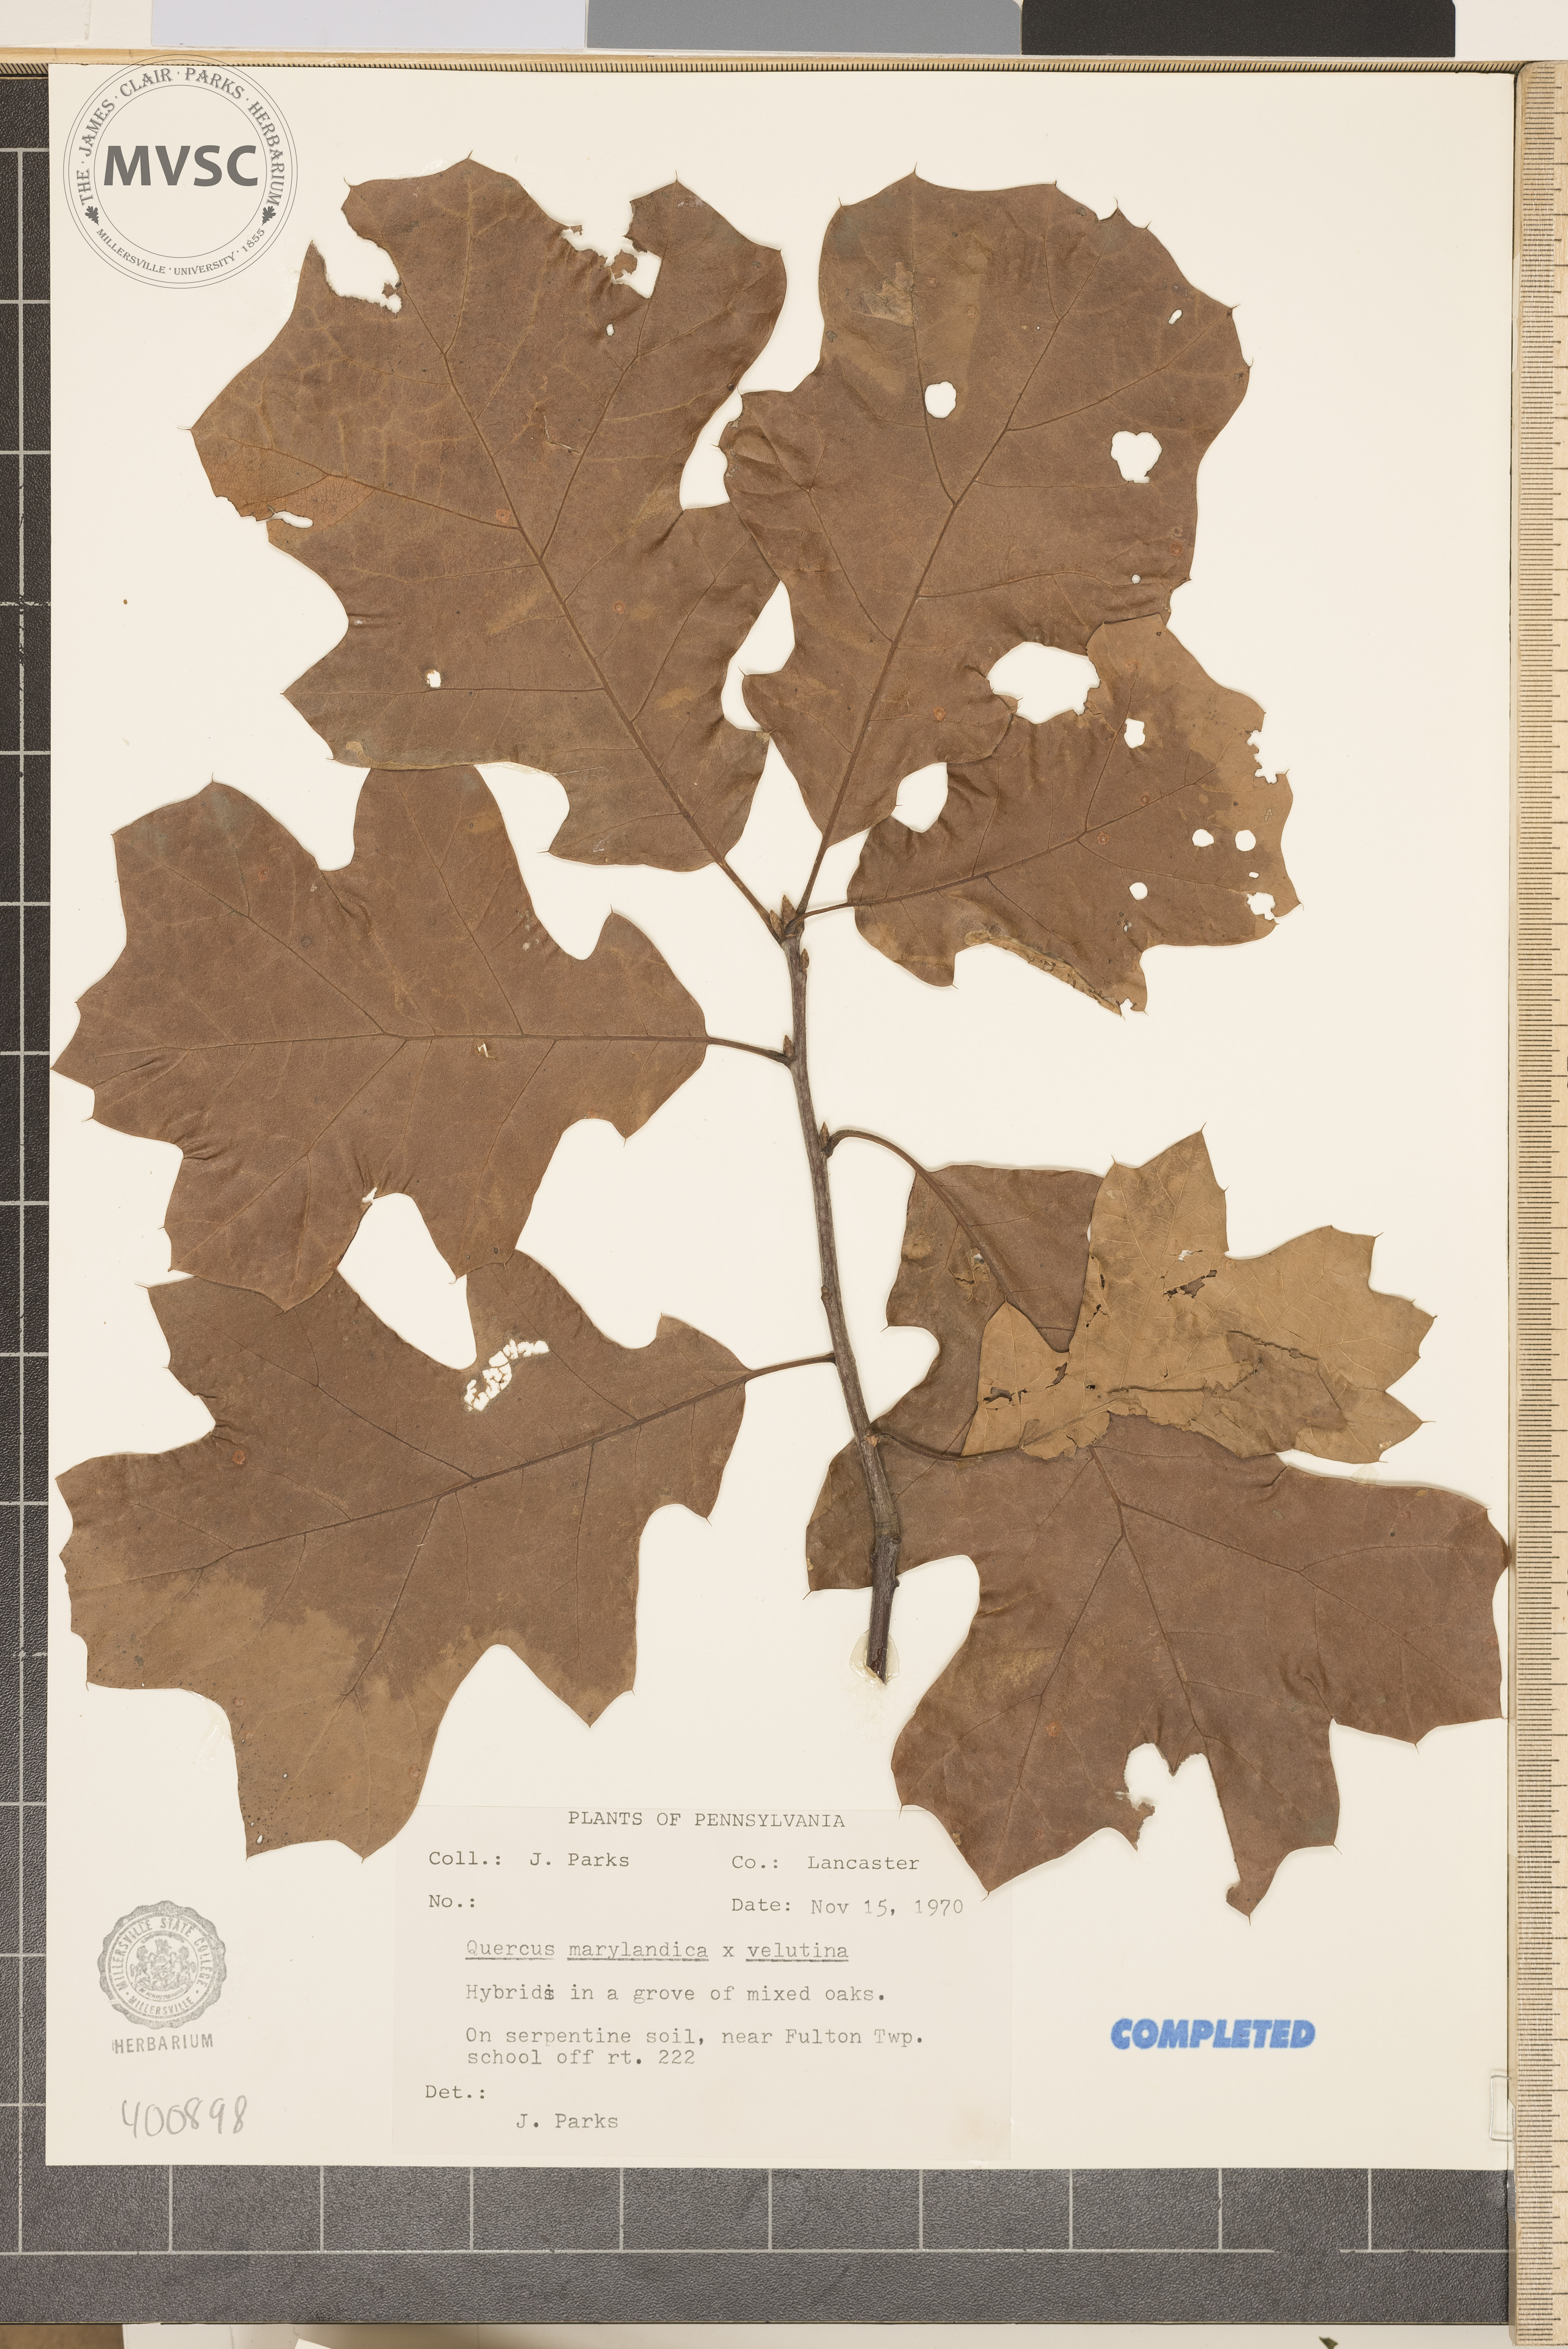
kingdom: Plantae
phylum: Tracheophyta
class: Magnoliopsida
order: Fagales
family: Fagaceae
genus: Quercus
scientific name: Quercus
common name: blackjack oak
